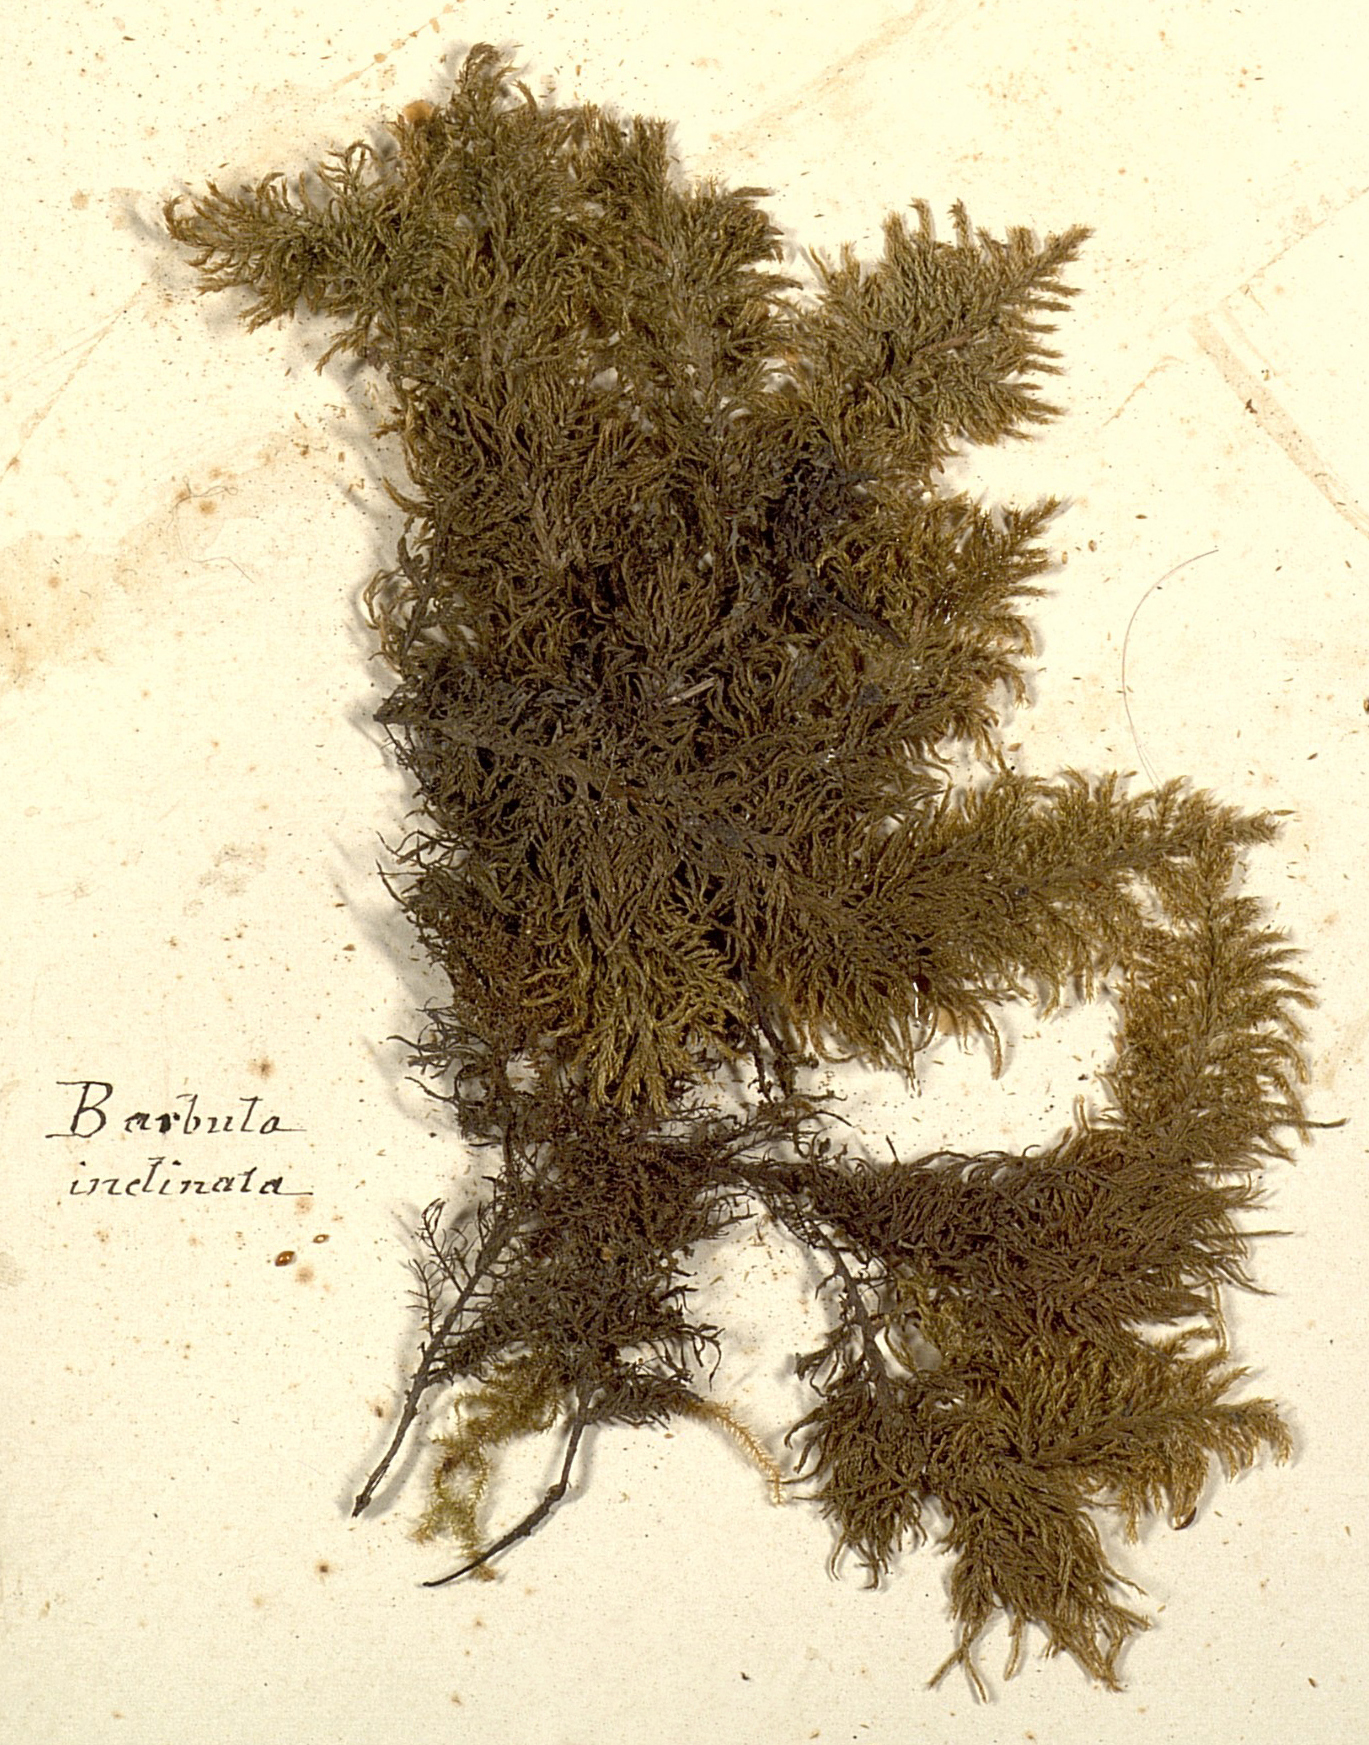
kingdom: Plantae
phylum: Bryophyta
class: Bryopsida
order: Pottiales
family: Pottiaceae
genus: Tortella
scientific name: Tortella inclinata
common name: Inclined twisted moss
